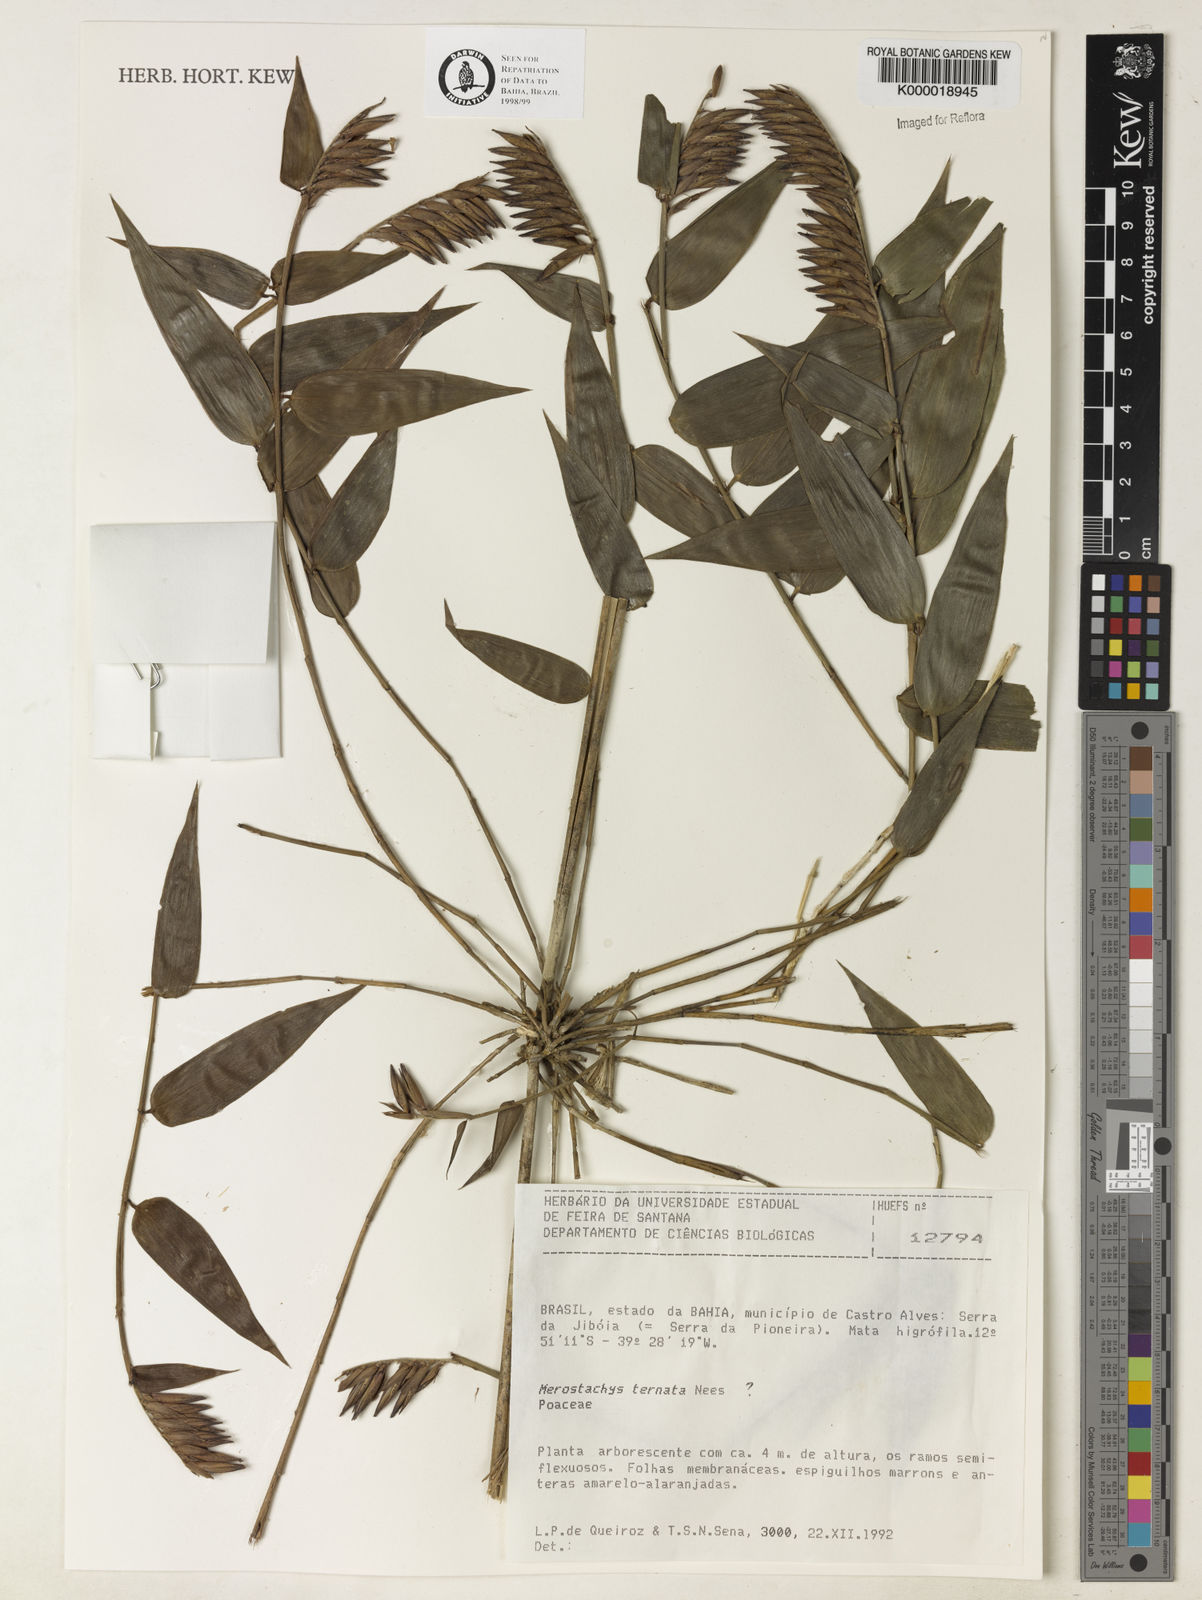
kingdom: Plantae
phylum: Tracheophyta
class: Liliopsida
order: Poales
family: Poaceae
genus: Merostachys
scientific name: Merostachys ternata
